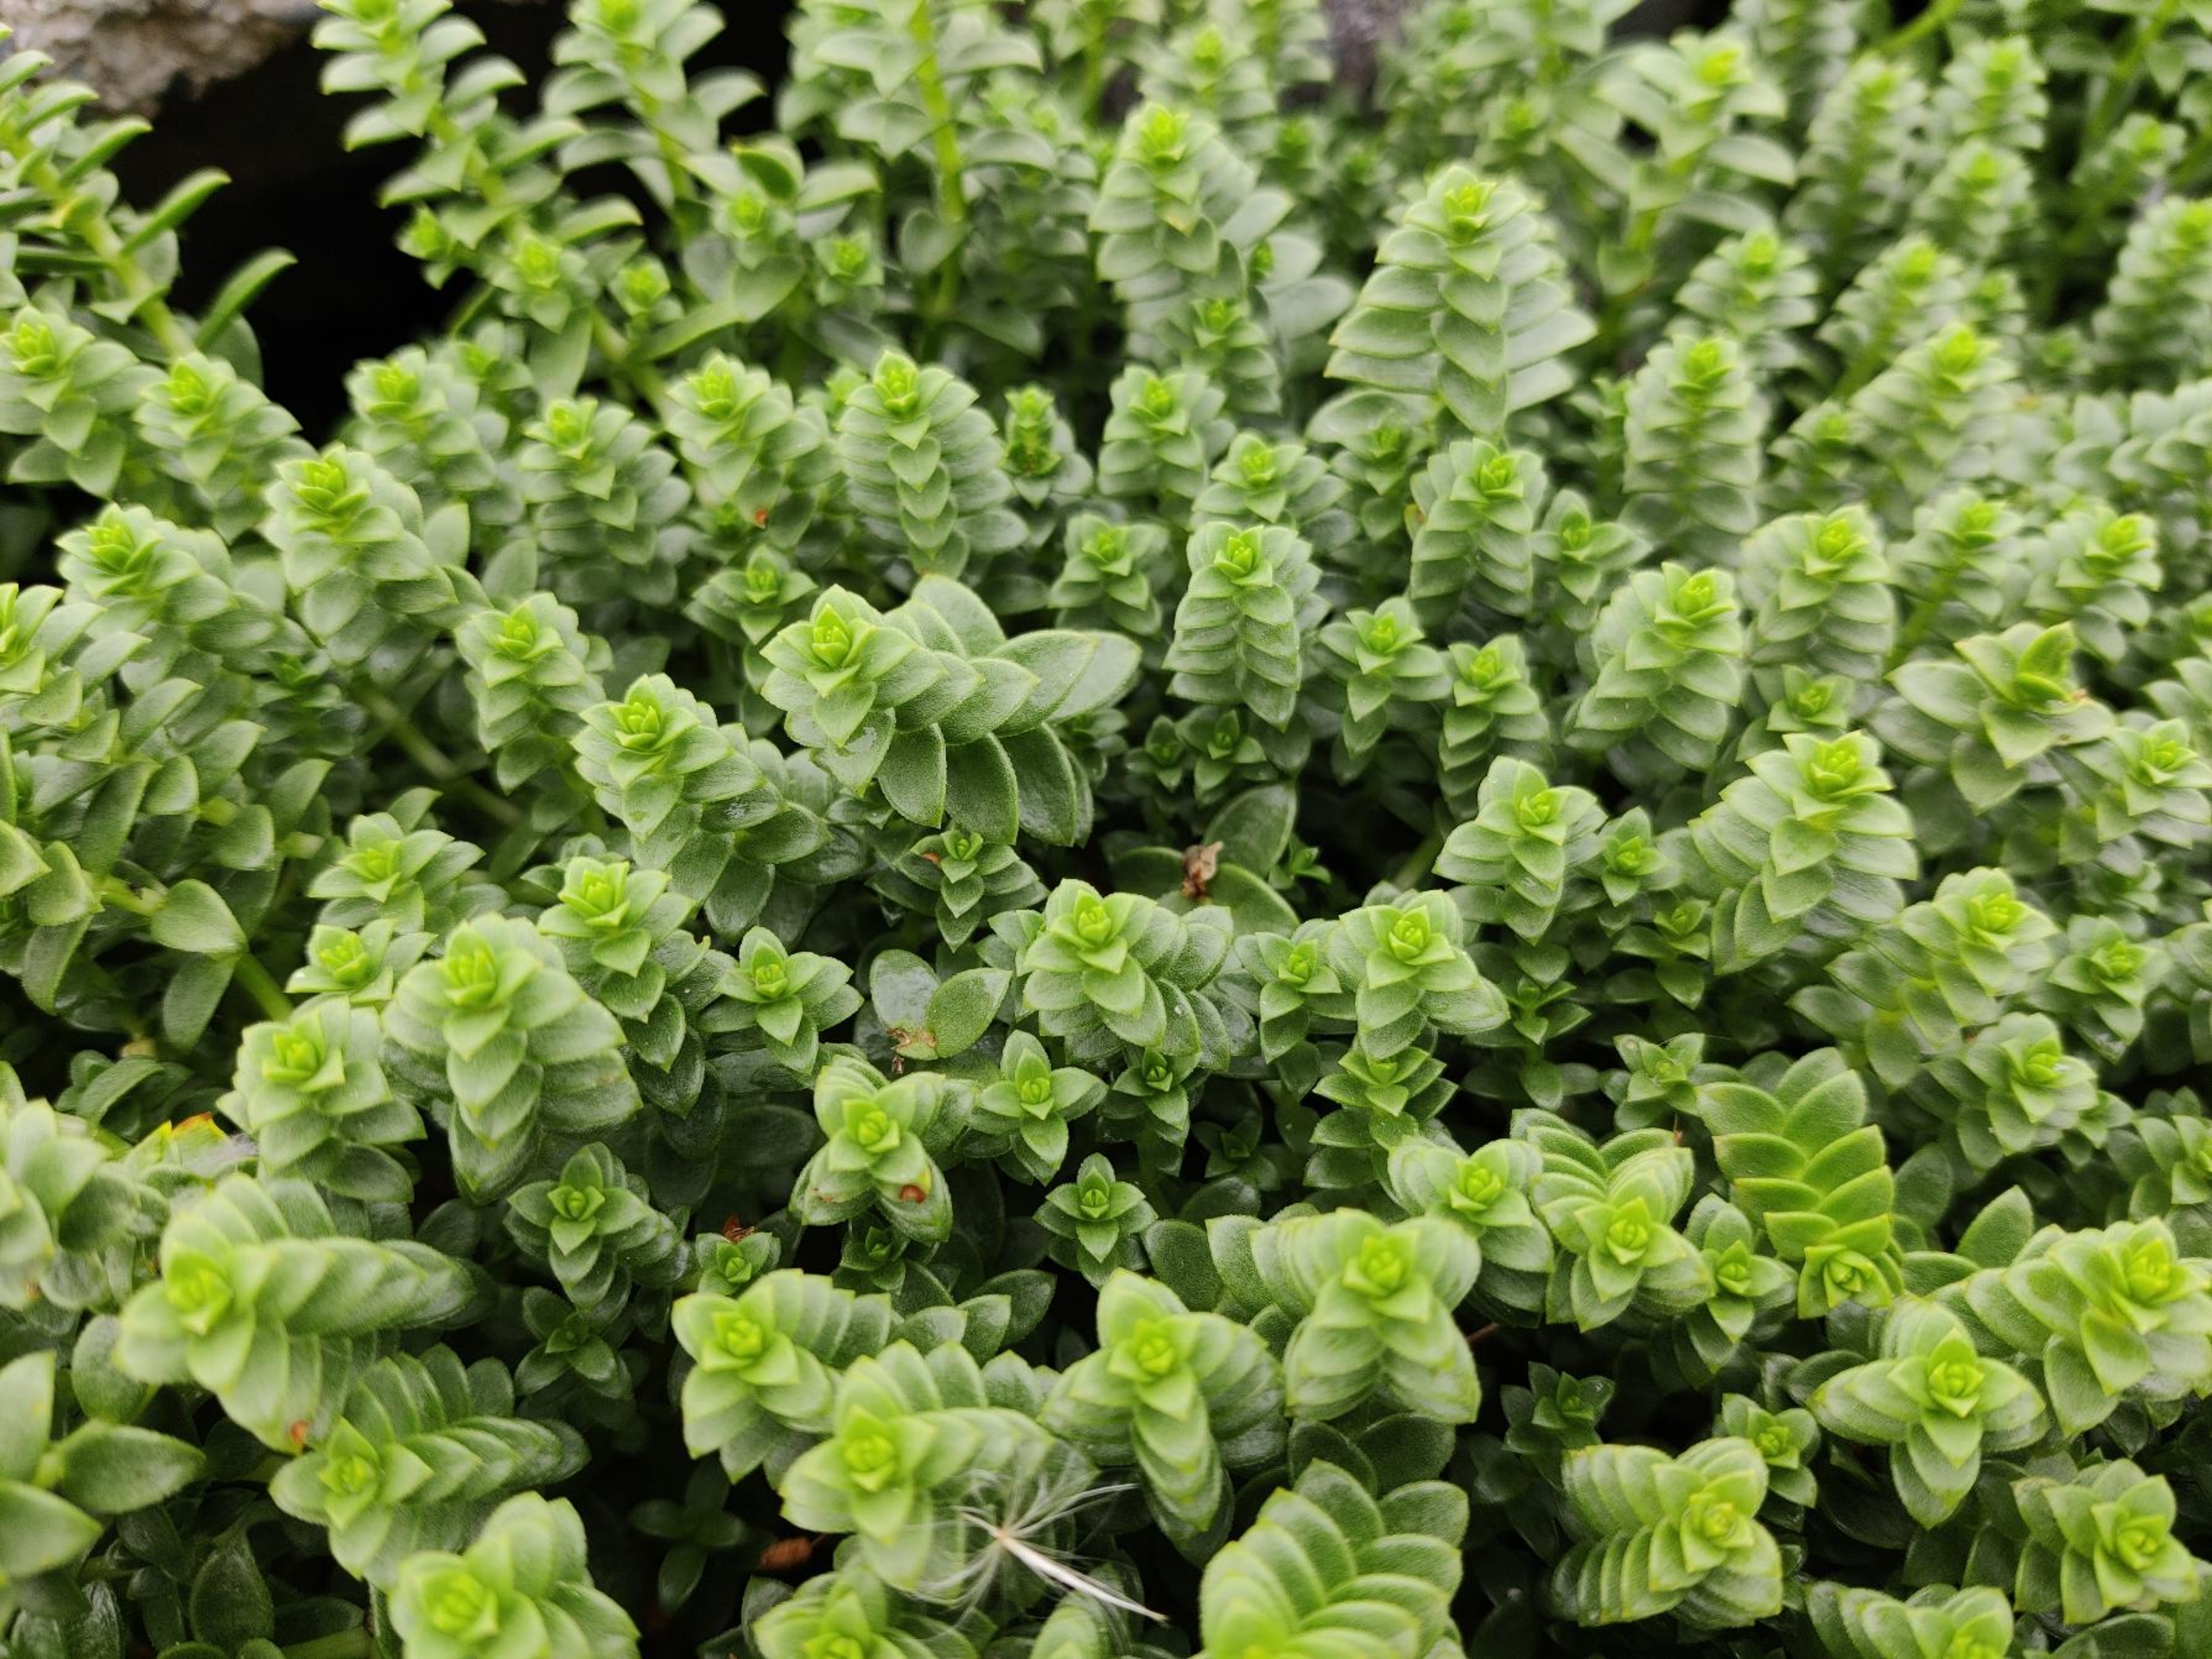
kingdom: Plantae
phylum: Tracheophyta
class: Magnoliopsida
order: Caryophyllales
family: Caryophyllaceae
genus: Honckenya
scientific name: Honckenya peploides
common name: Strandarve
